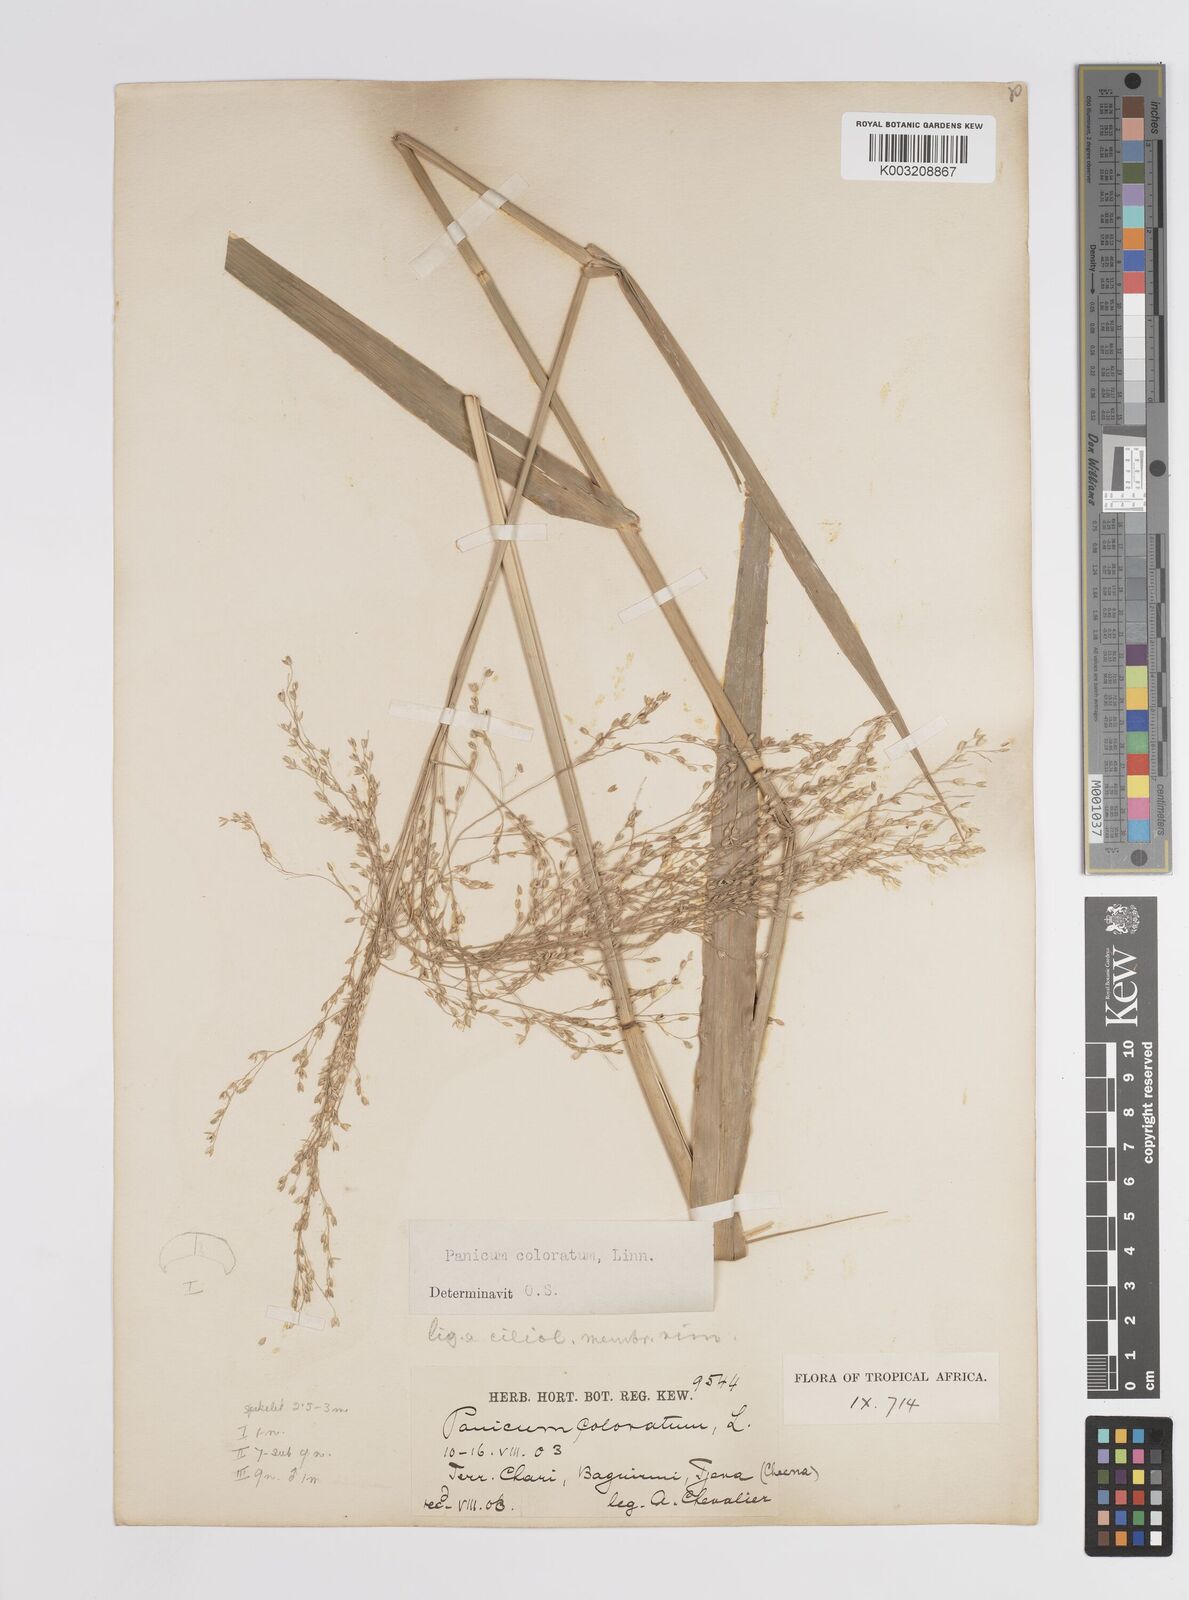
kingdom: Plantae
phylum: Tracheophyta
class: Liliopsida
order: Poales
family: Poaceae
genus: Panicum
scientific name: Panicum coloratum
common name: Kleingrass
